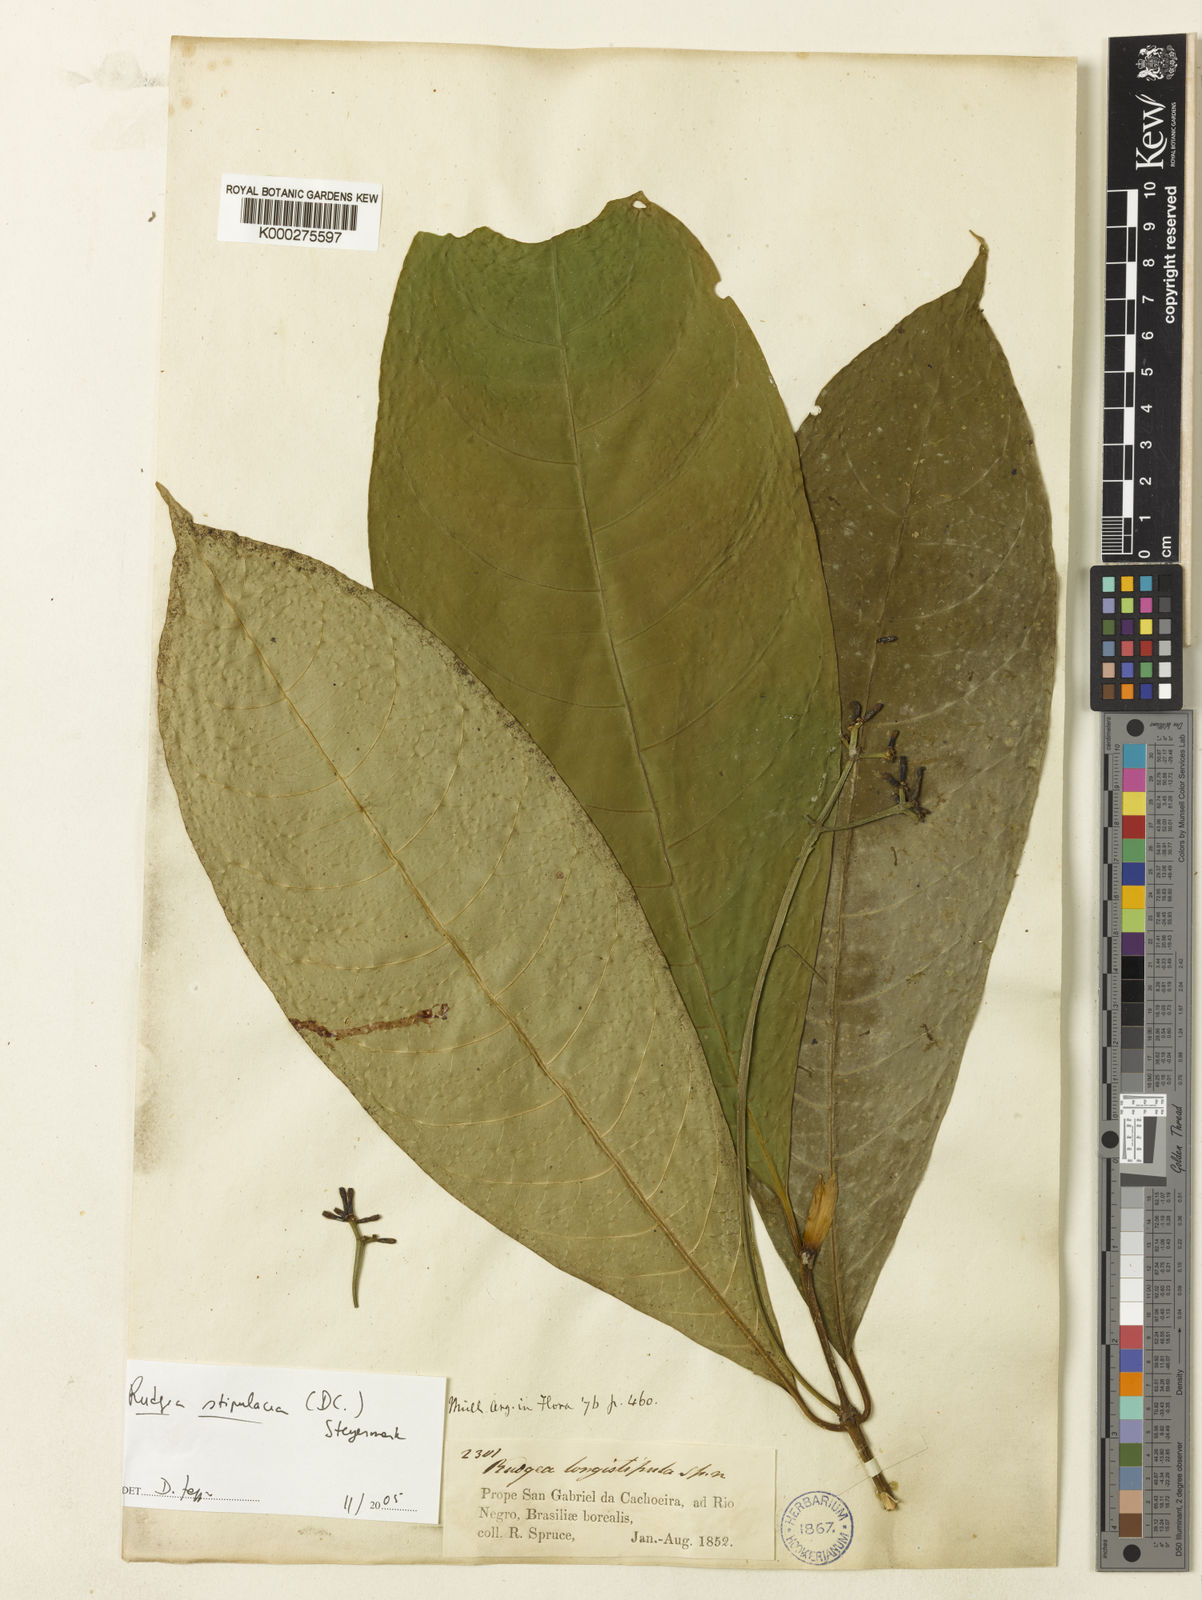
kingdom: Plantae
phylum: Tracheophyta
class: Magnoliopsida
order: Gentianales
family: Rubiaceae
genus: Rudgea
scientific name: Rudgea stipulacea
